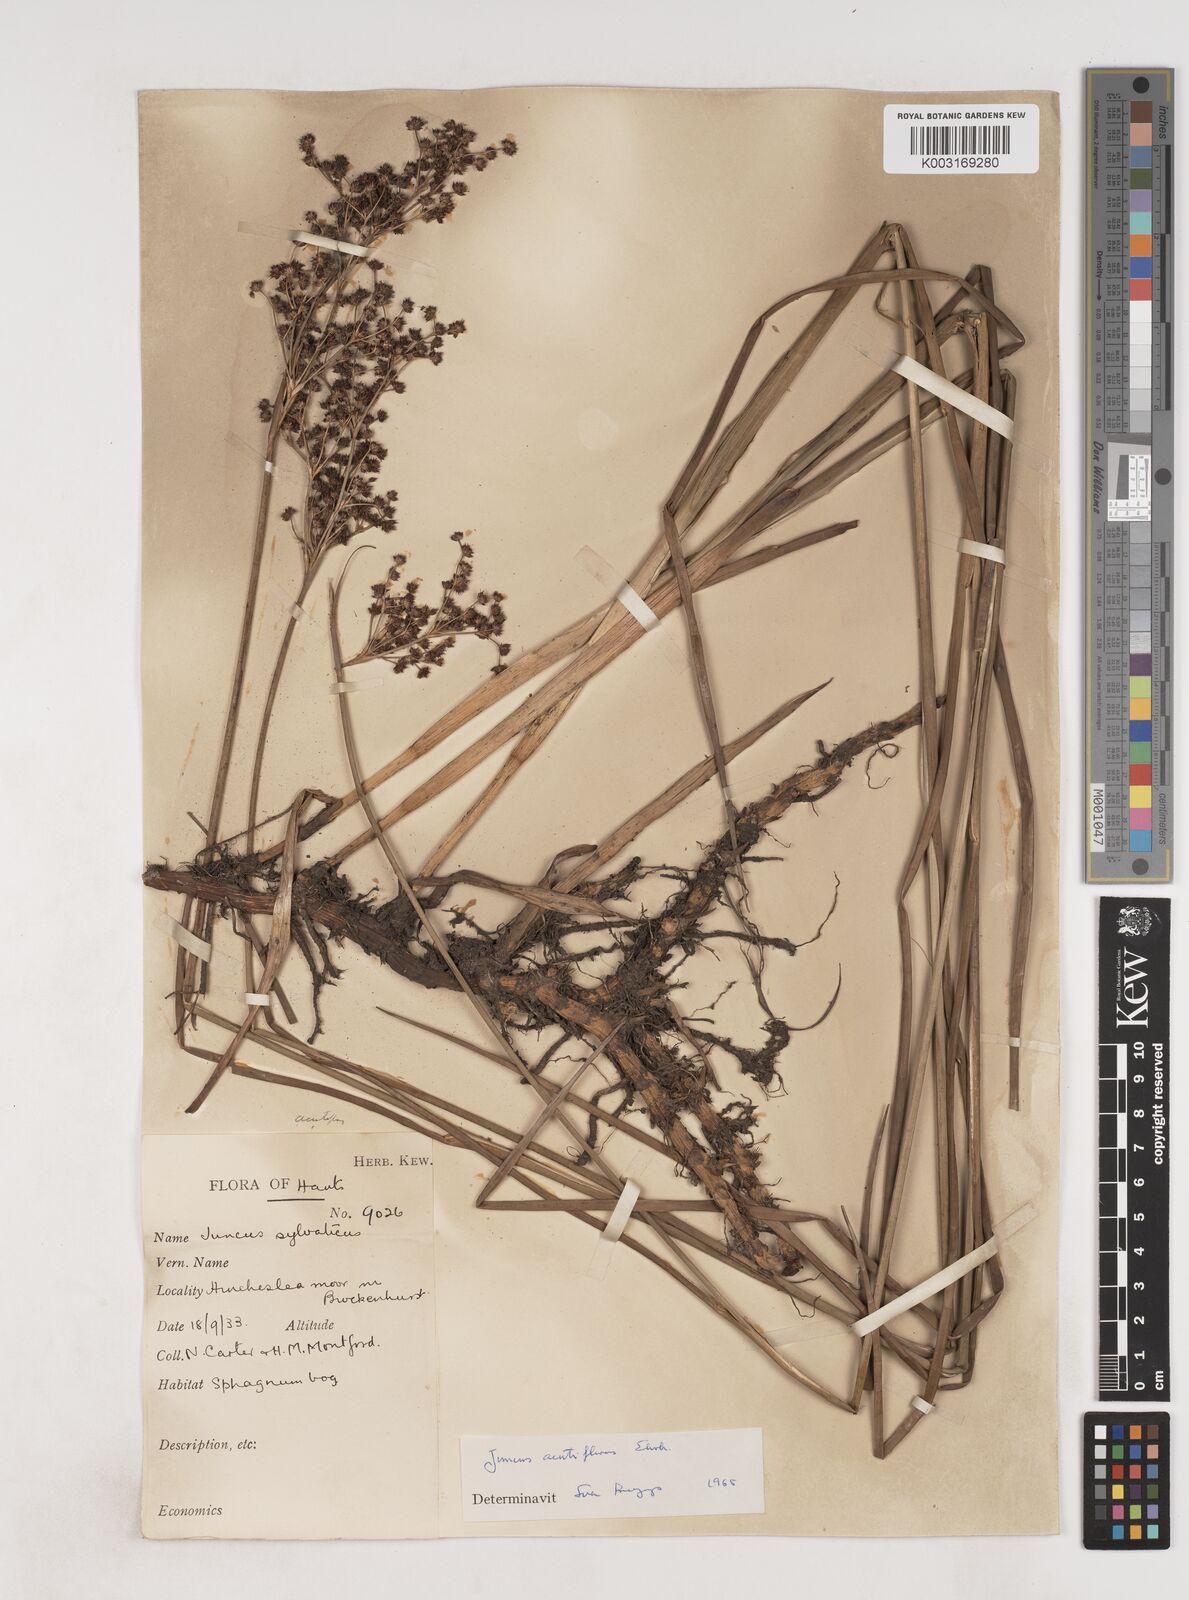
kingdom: Plantae
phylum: Tracheophyta
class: Liliopsida
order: Poales
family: Juncaceae
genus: Juncus
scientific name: Juncus acutiflorus
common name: Sharp-flowered rush
